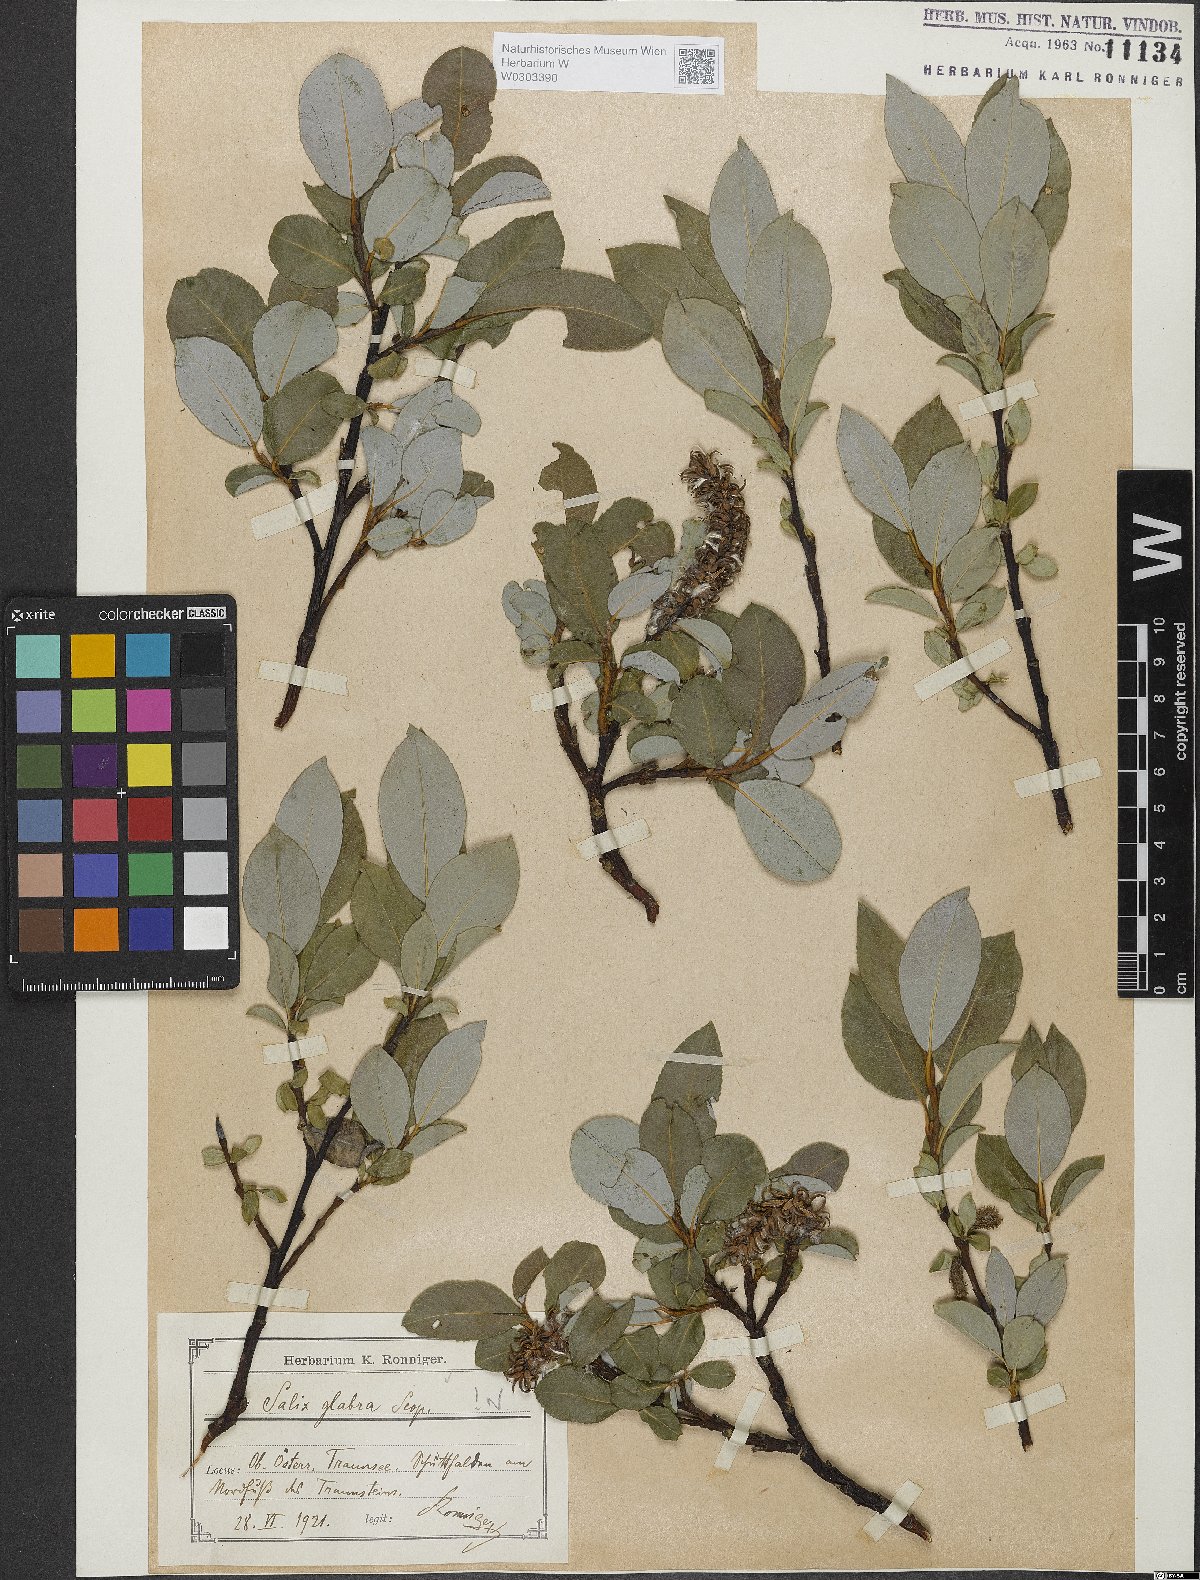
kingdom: Plantae
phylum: Tracheophyta
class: Magnoliopsida
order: Malpighiales
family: Salicaceae
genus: Salix
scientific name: Salix glabra
